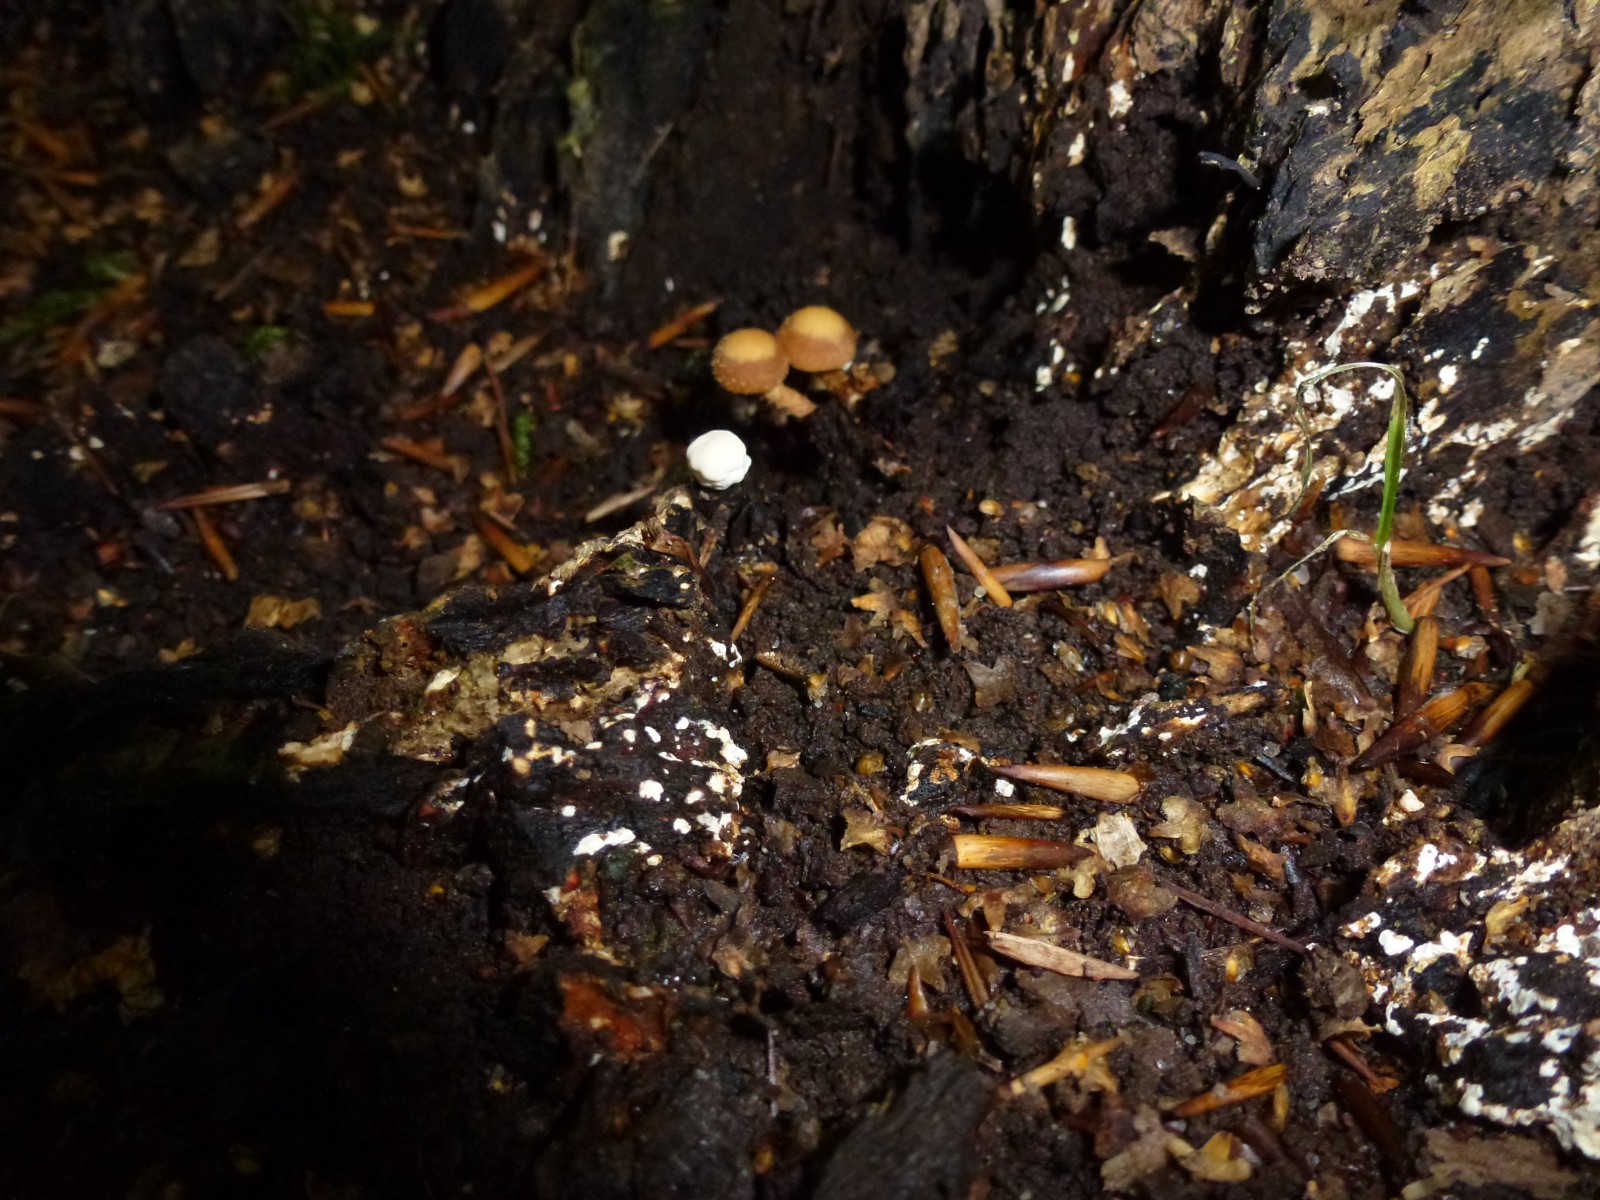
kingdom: Fungi
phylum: Basidiomycota
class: Agaricomycetes
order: Agaricales
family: Strophariaceae
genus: Kuehneromyces
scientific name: Kuehneromyces mutabilis
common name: foranderlig skælhat
